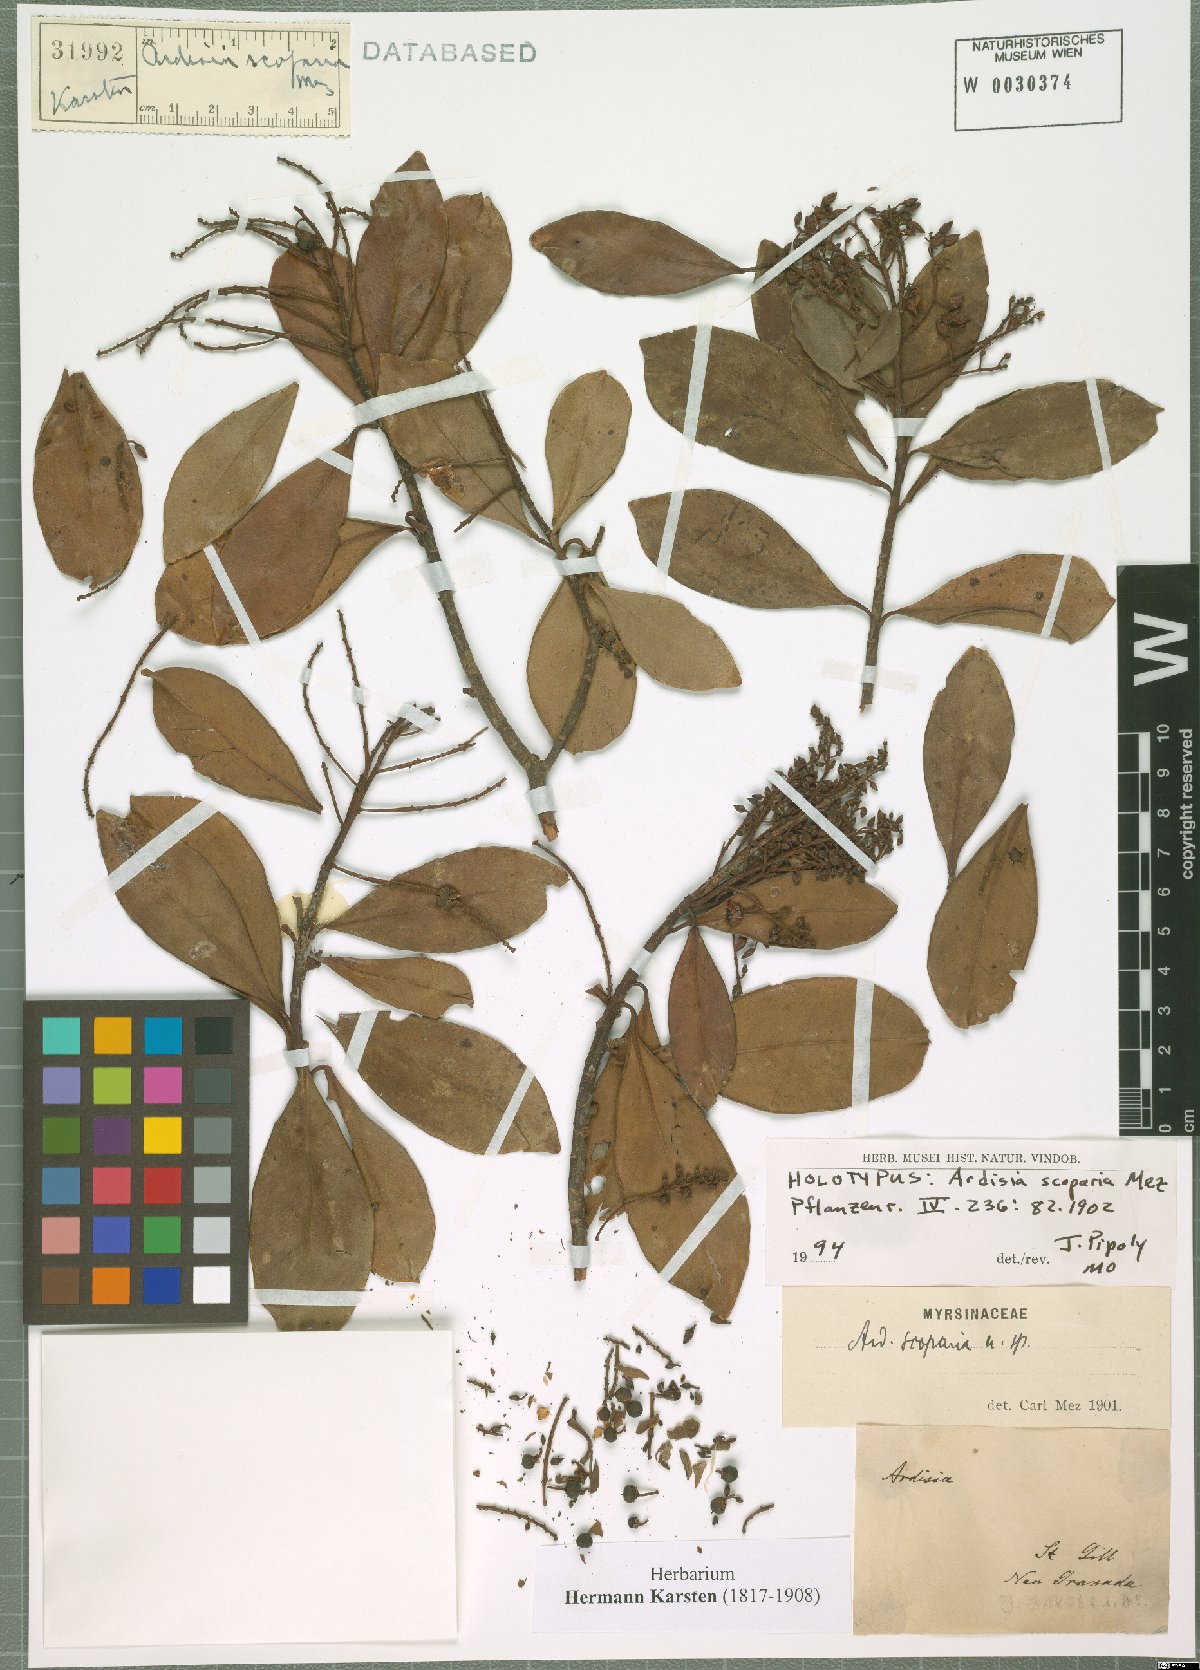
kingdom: Plantae
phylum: Tracheophyta
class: Magnoliopsida
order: Ericales
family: Primulaceae
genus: Ardisia
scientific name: Ardisia revoluta
